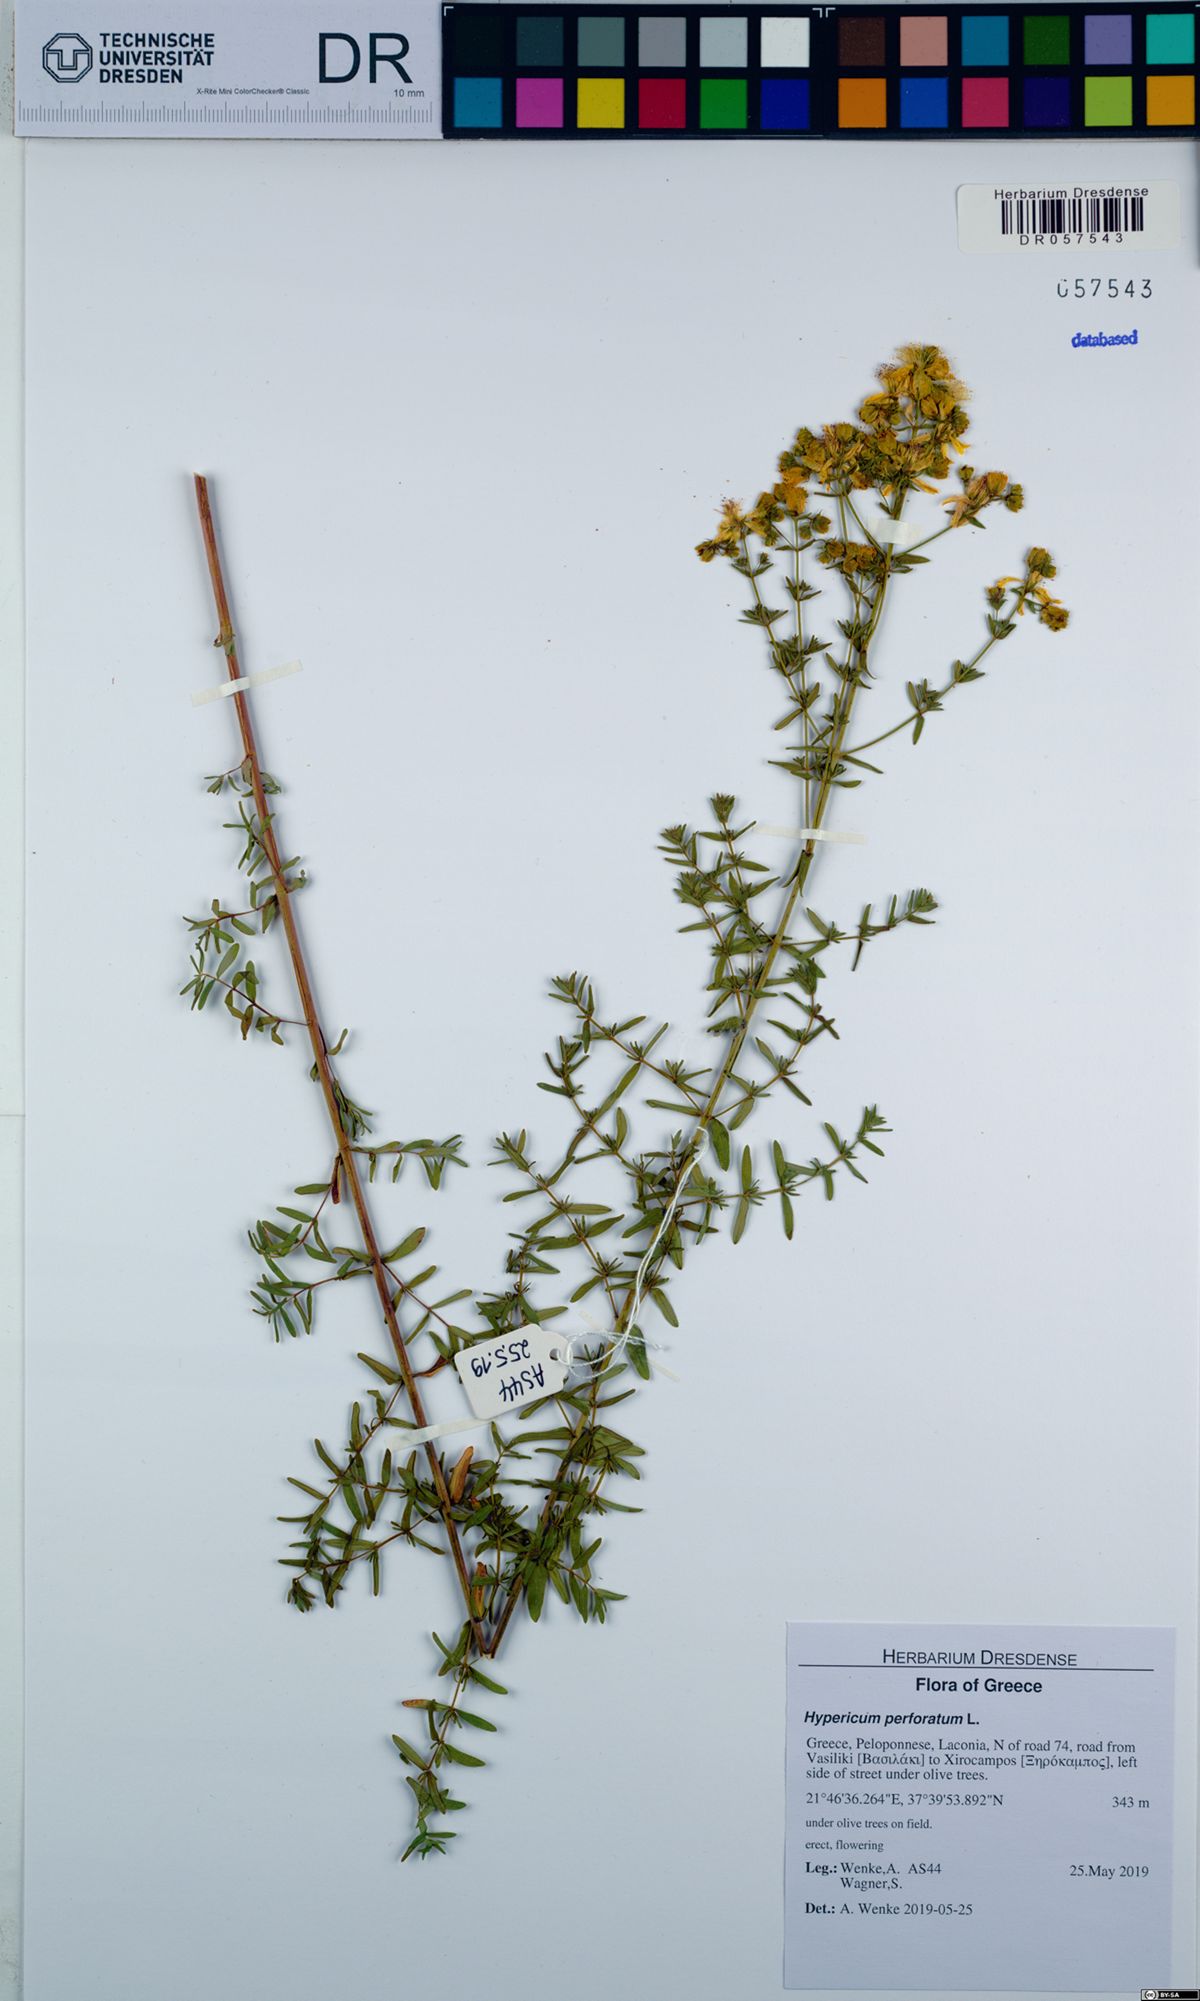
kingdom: Plantae
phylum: Tracheophyta
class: Magnoliopsida
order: Malpighiales
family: Hypericaceae
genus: Hypericum
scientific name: Hypericum perforatum
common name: Common st. johnswort
